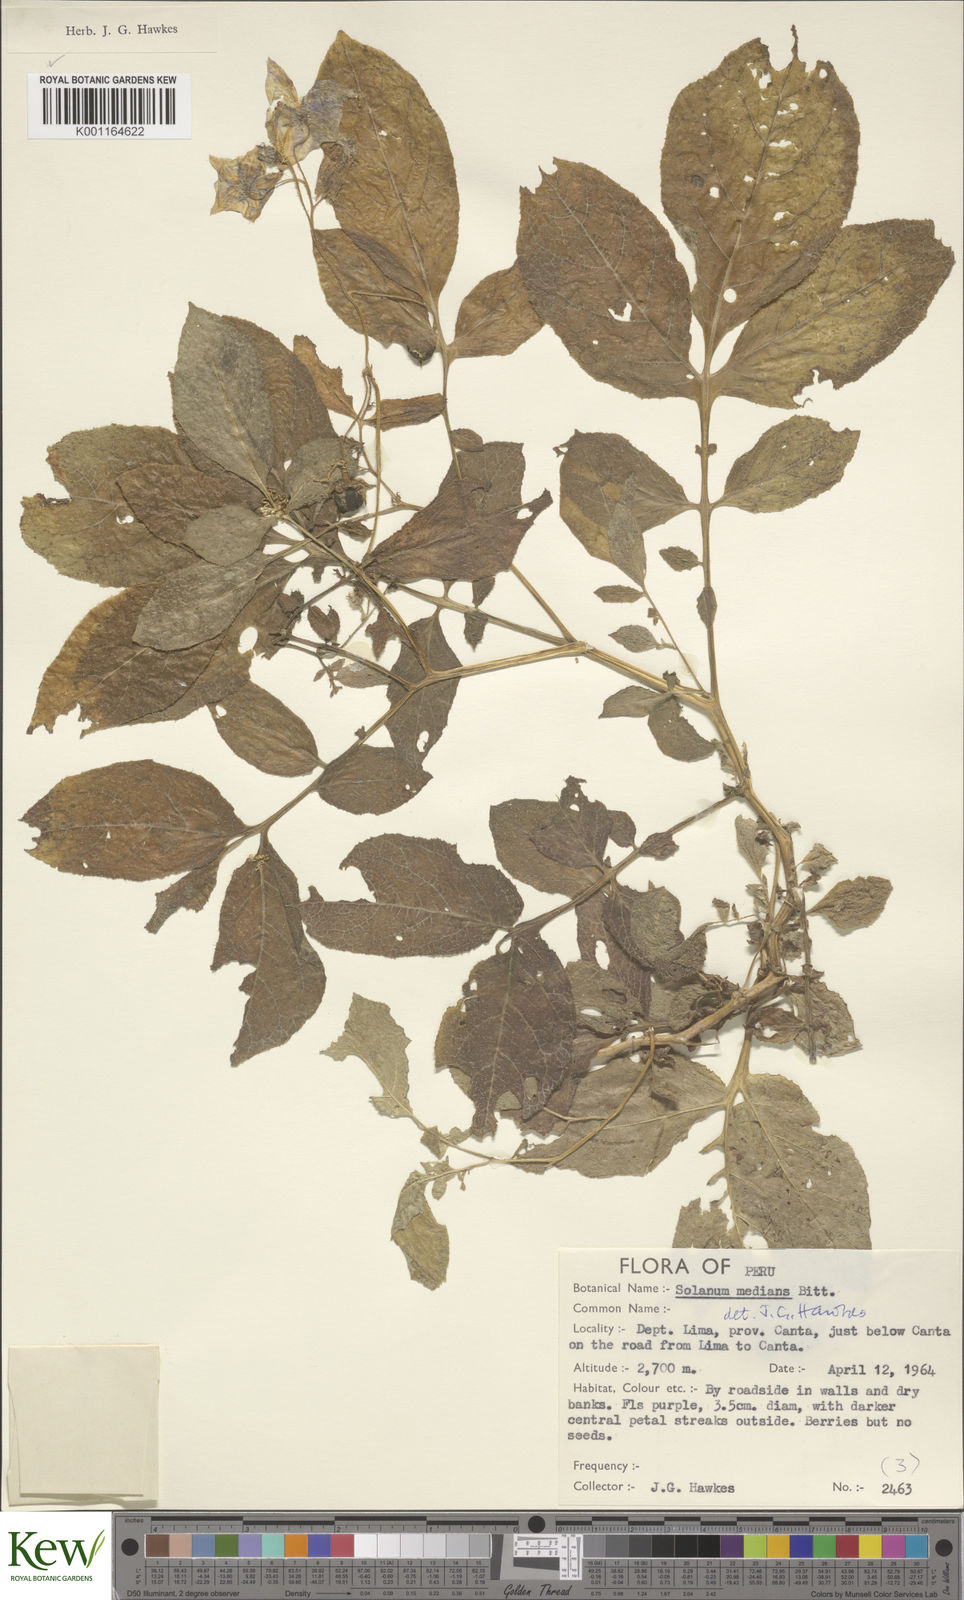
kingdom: Plantae
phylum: Tracheophyta
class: Magnoliopsida
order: Solanales
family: Solanaceae
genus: Solanum
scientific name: Solanum medians
